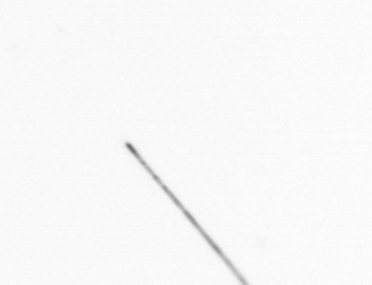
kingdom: Chromista
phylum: Ochrophyta
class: Bacillariophyceae
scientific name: Bacillariophyceae
